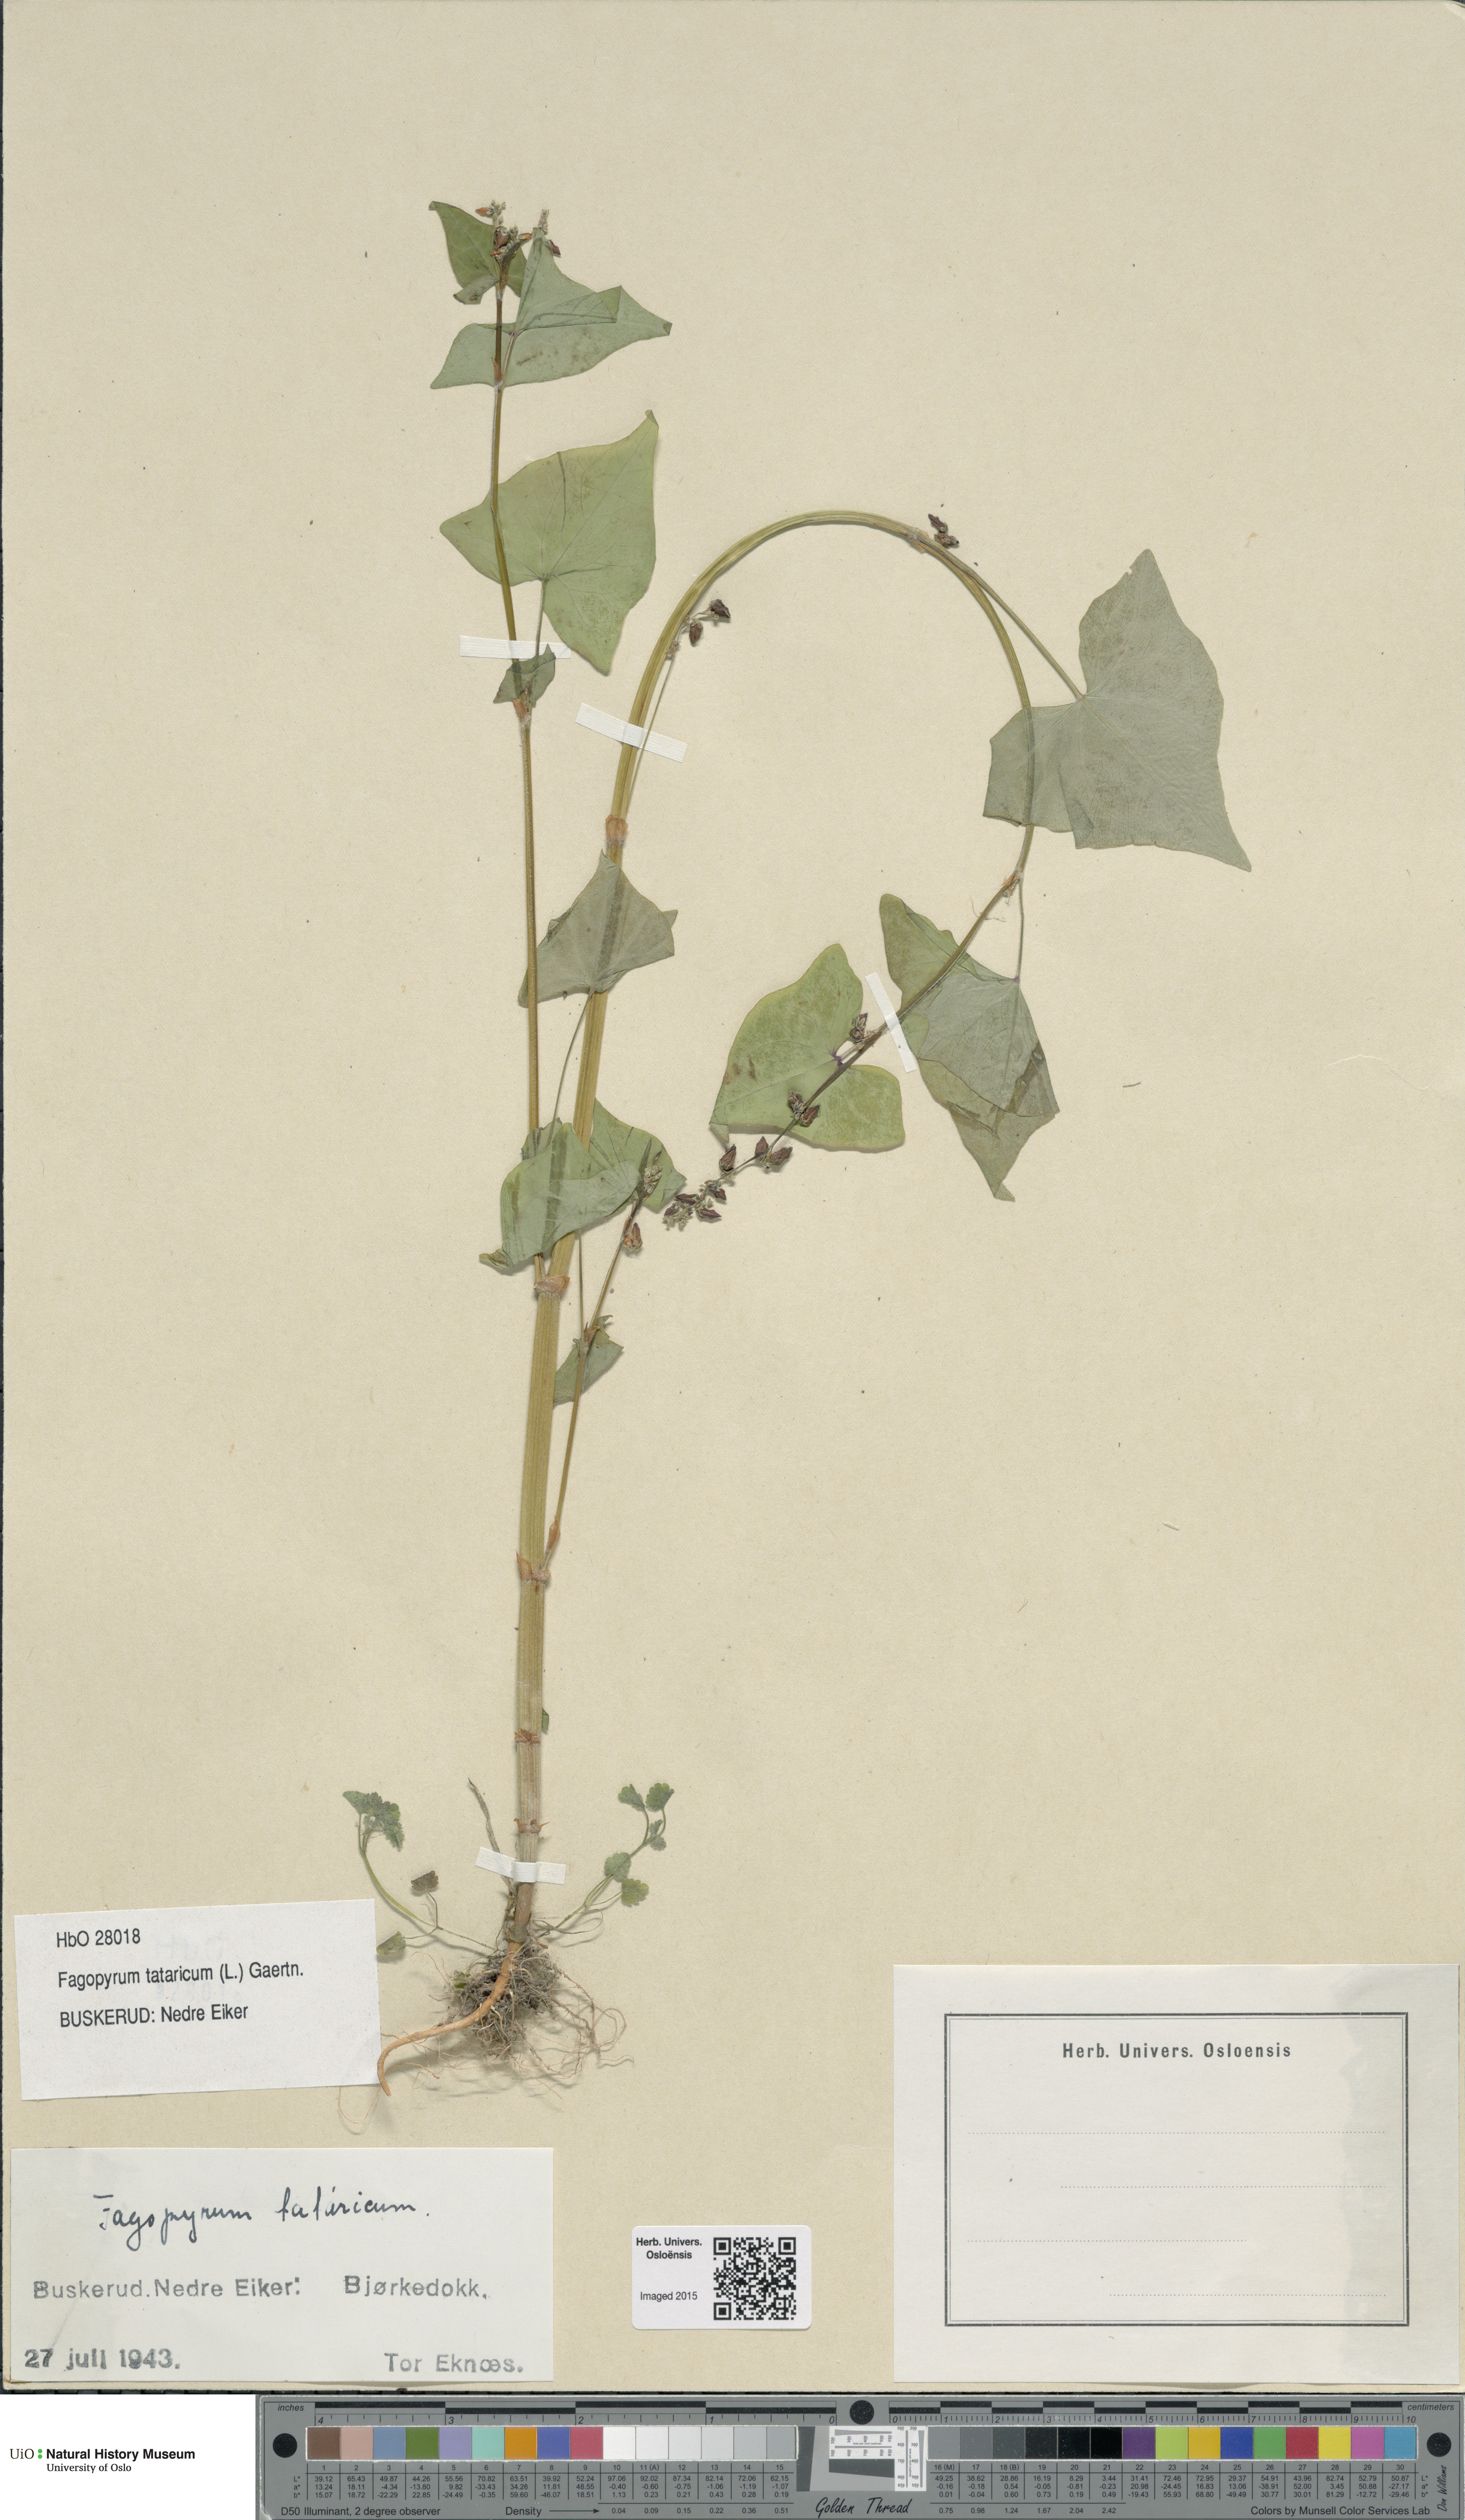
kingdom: Plantae
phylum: Tracheophyta
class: Magnoliopsida
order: Caryophyllales
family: Polygonaceae
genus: Fagopyrum
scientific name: Fagopyrum tataricum
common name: Green buckwheat
